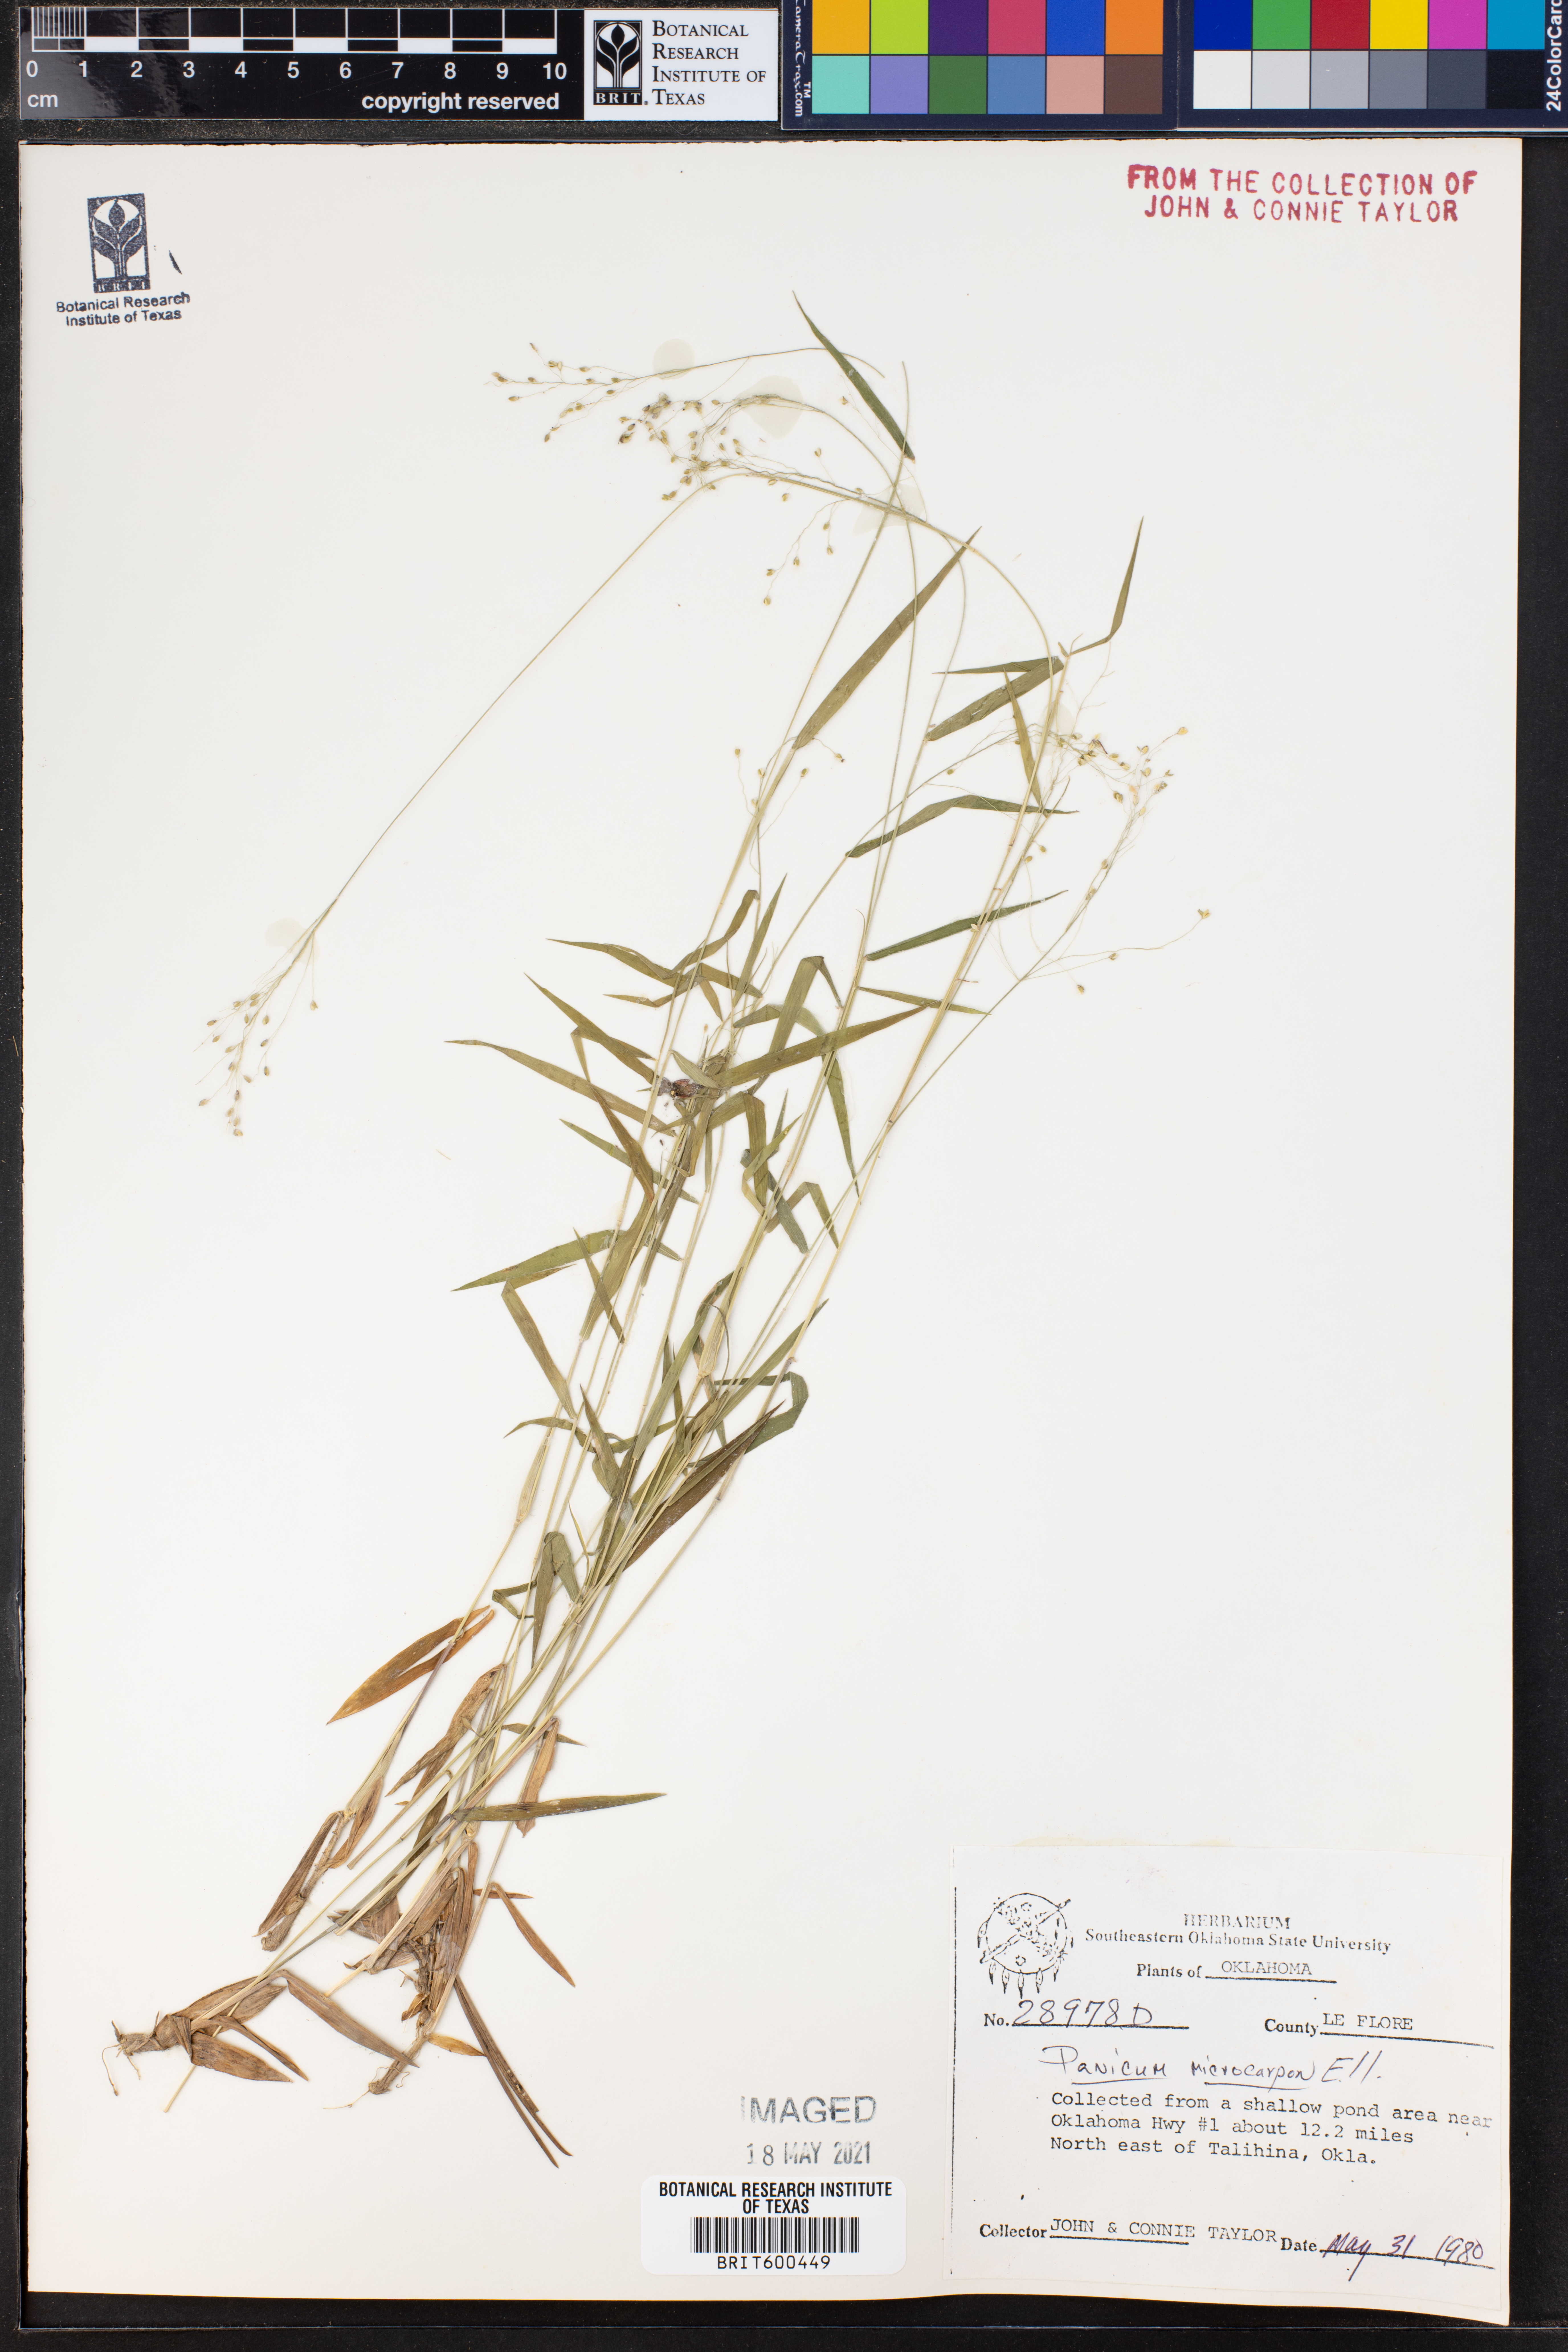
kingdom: Plantae
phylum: Tracheophyta
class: Liliopsida
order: Poales
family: Poaceae
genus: Dichanthelium
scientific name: Dichanthelium polyanthes
